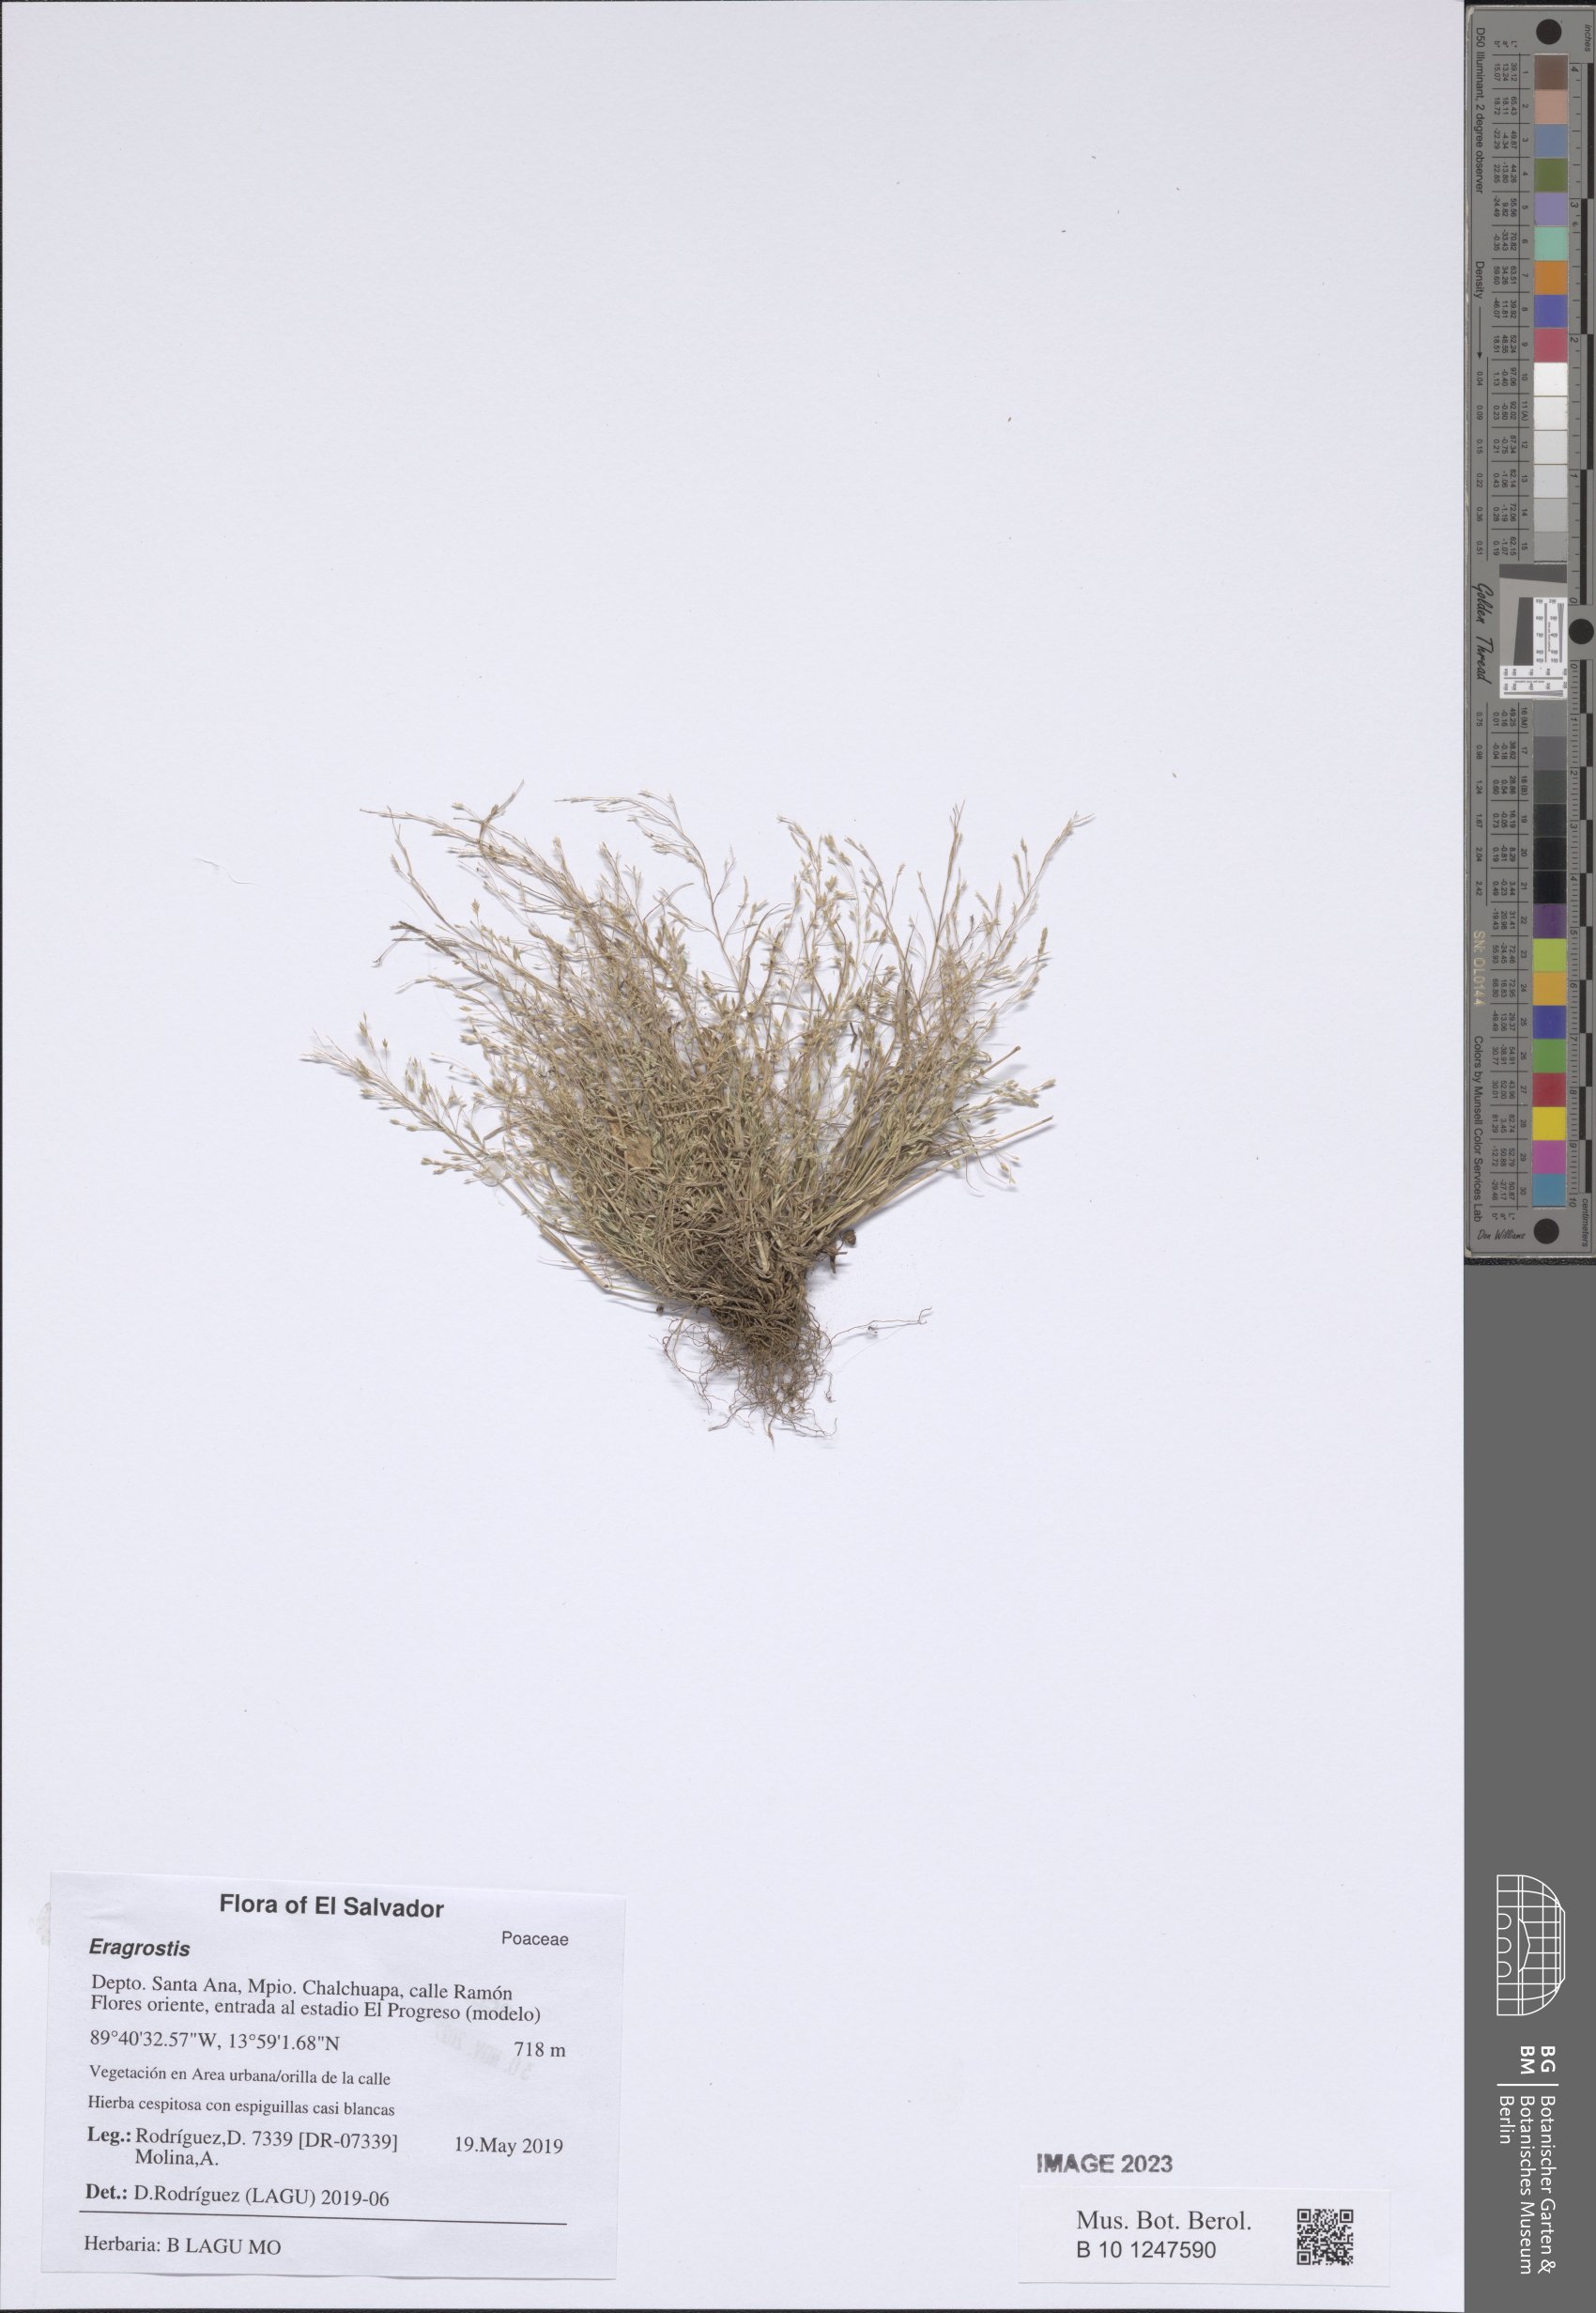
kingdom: Plantae
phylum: Tracheophyta
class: Liliopsida
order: Poales
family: Poaceae
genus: Eragrostis
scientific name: Eragrostis
